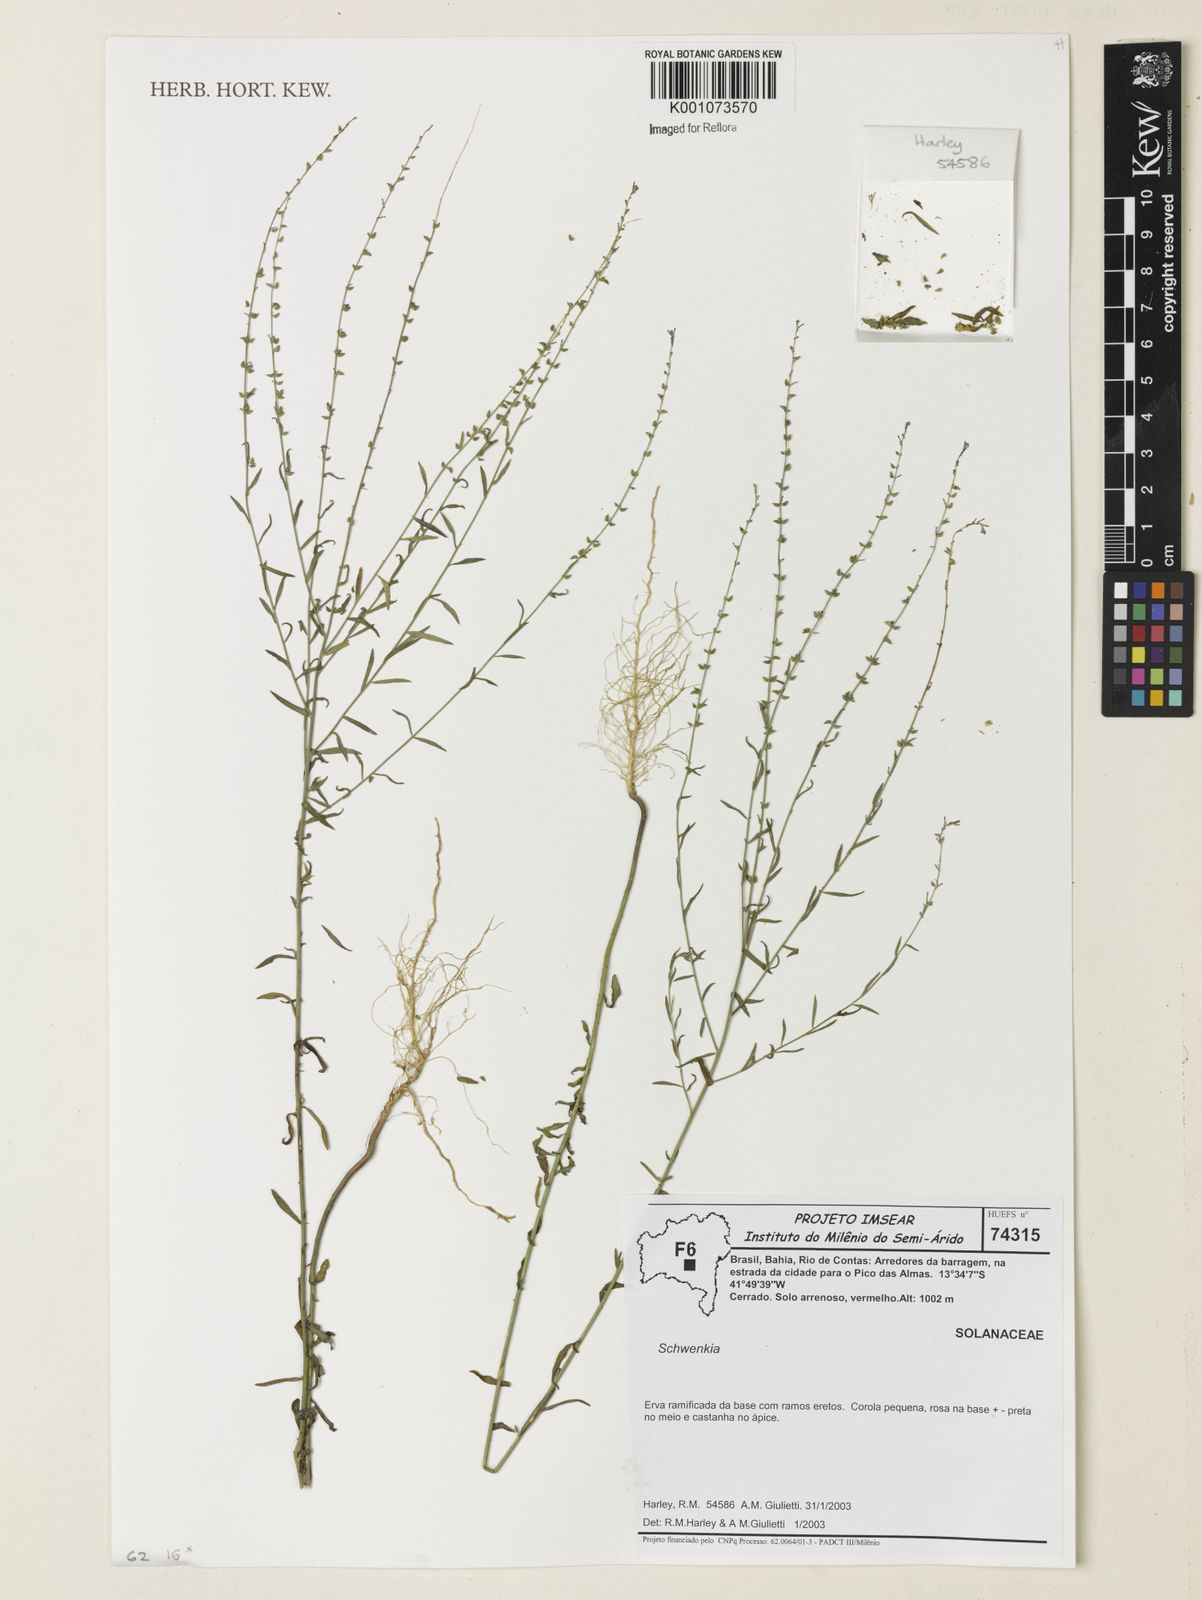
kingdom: Plantae
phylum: Tracheophyta
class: Magnoliopsida
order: Solanales
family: Solanaceae
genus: Schwenckia
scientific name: Schwenckia
